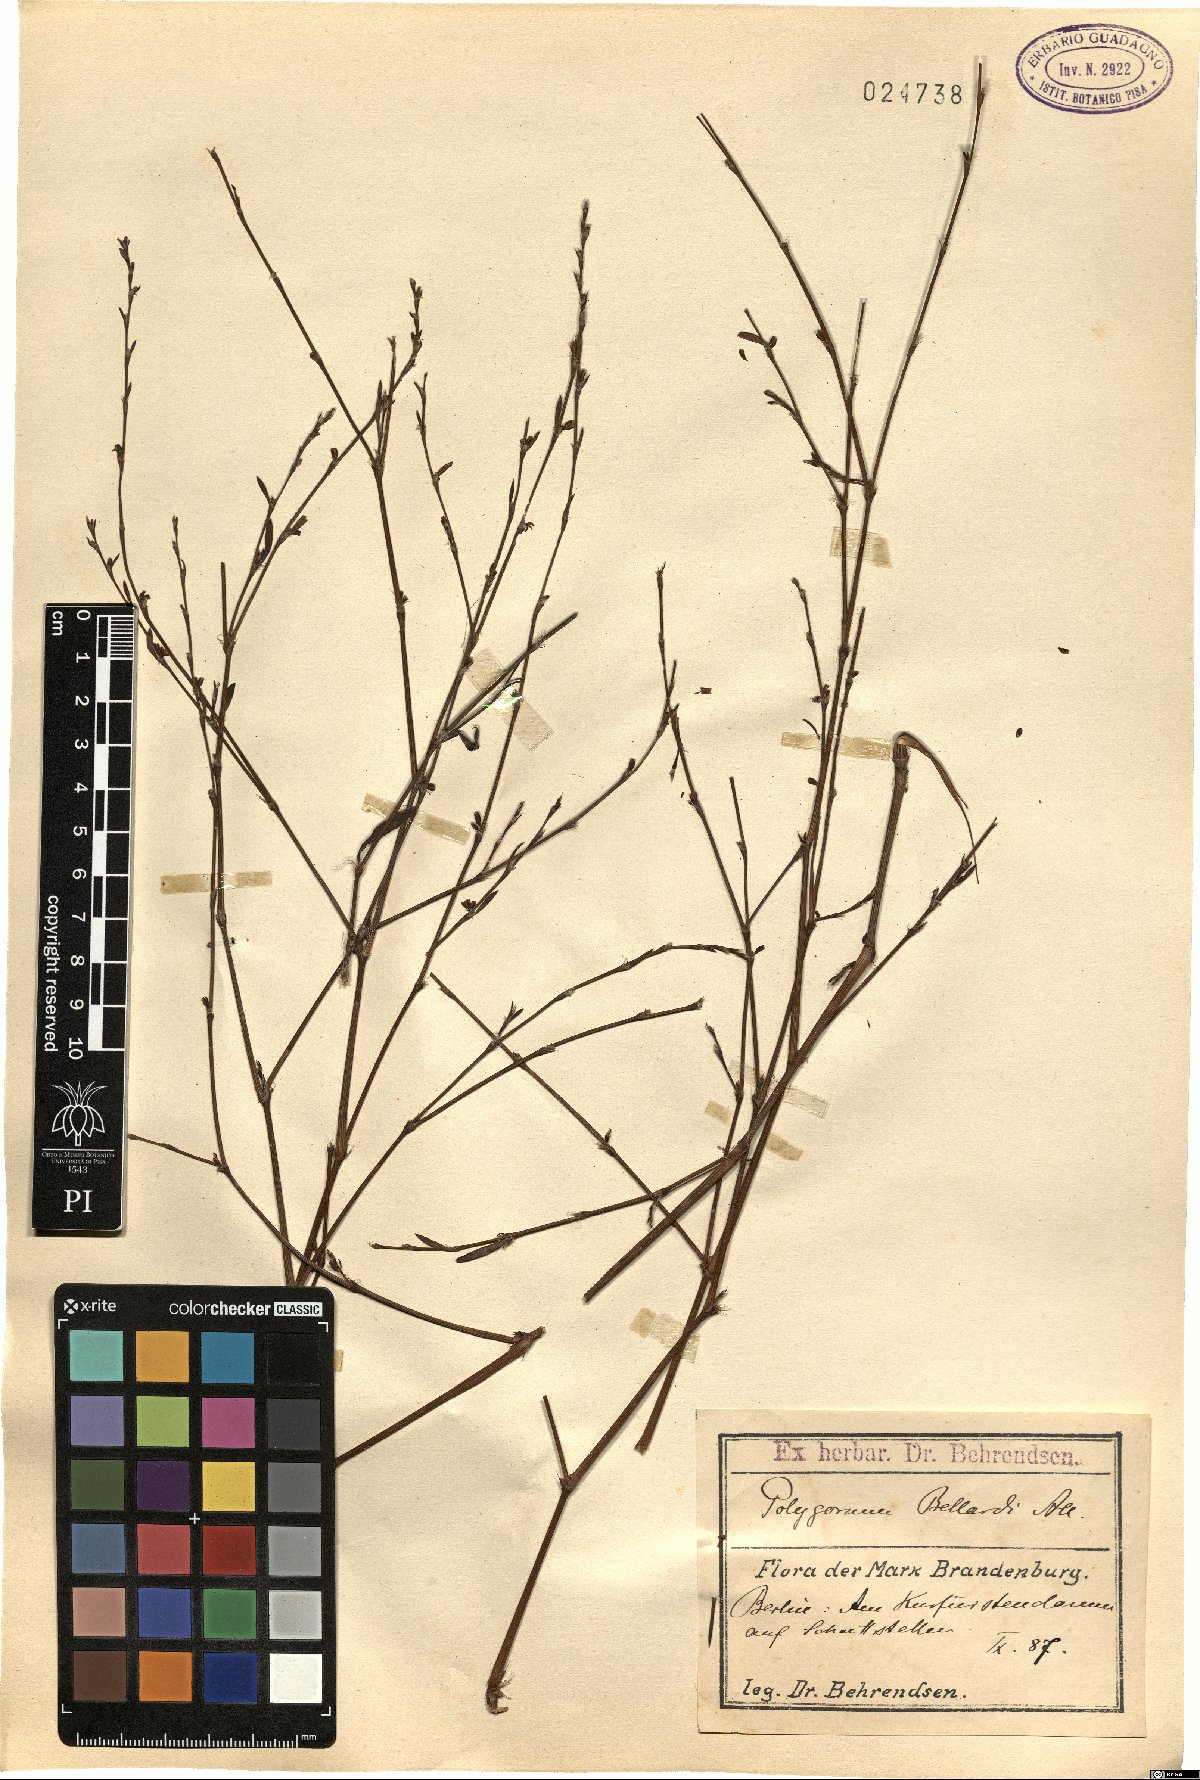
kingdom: Plantae
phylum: Tracheophyta
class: Magnoliopsida
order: Caryophyllales
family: Polygonaceae
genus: Polygonum
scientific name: Polygonum bellardii
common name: Narrowleaf knotweed
